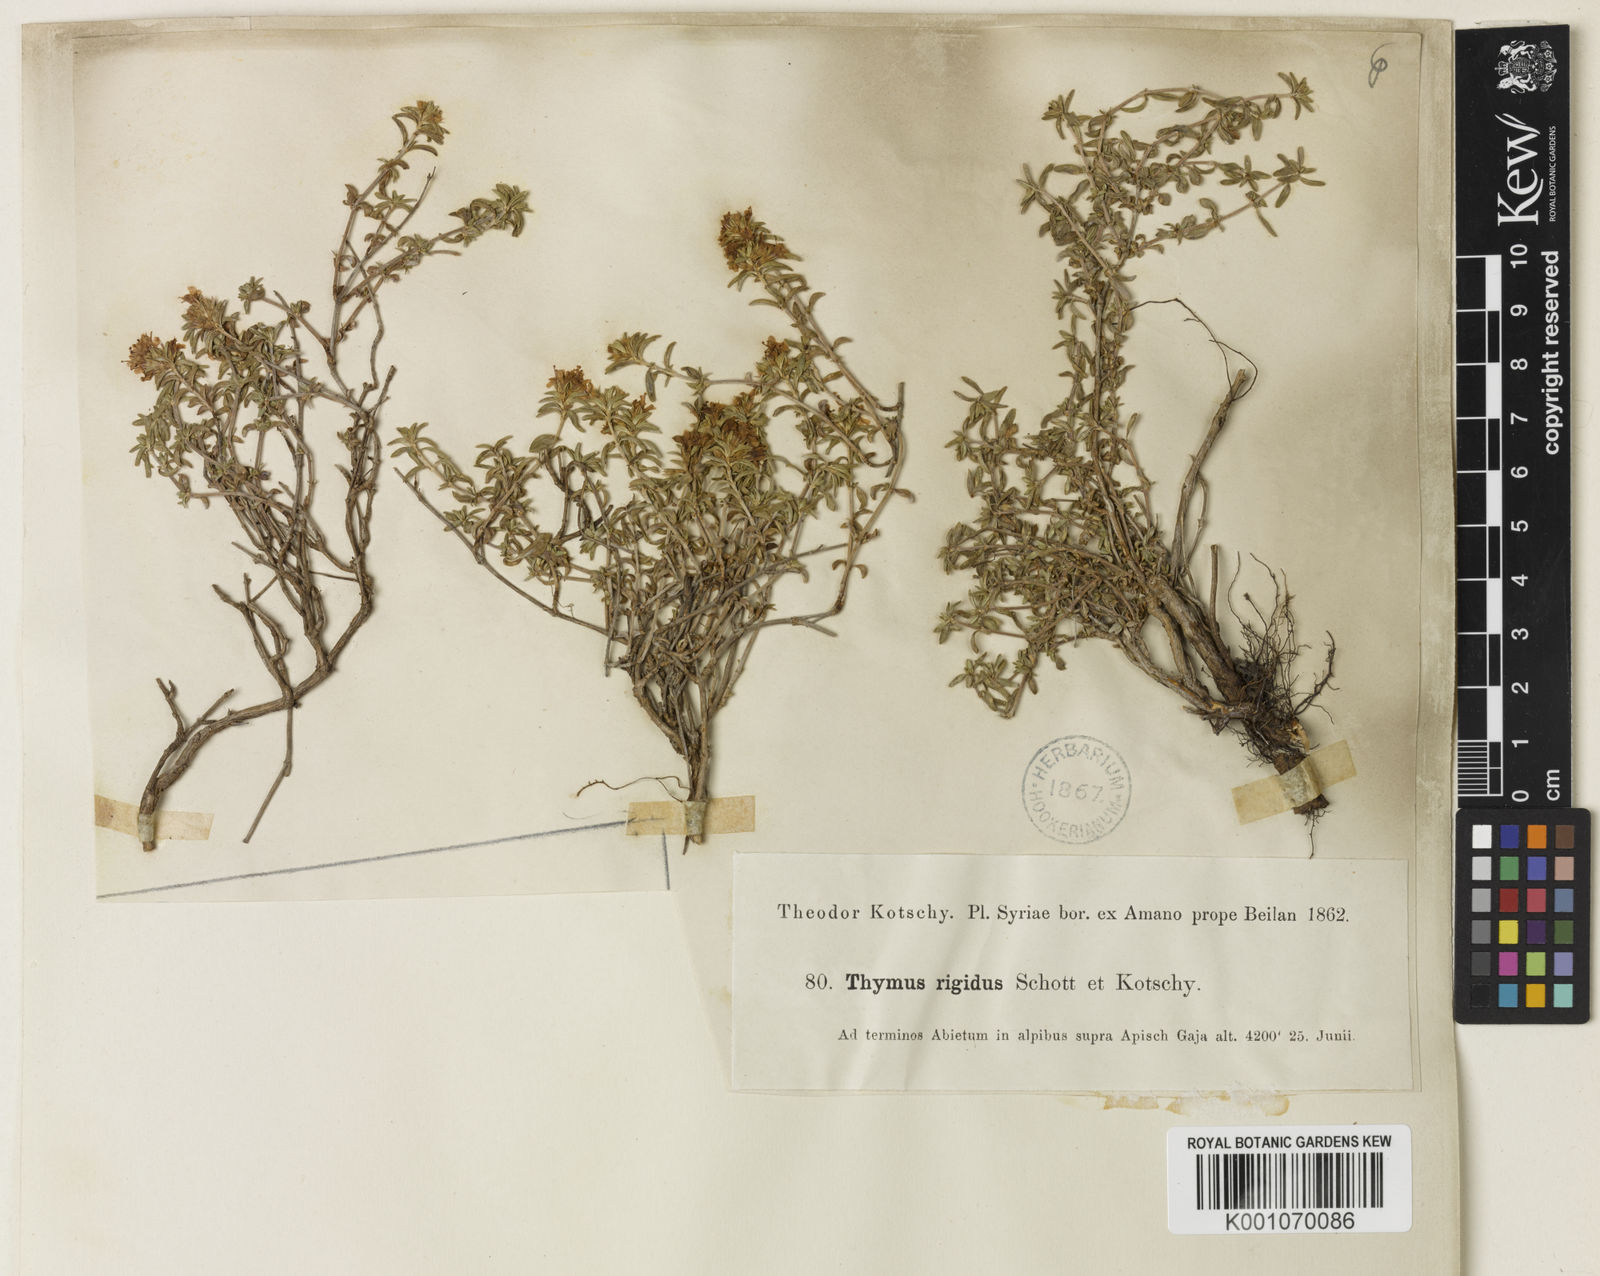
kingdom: Plantae
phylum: Tracheophyta
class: Magnoliopsida
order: Lamiales
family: Lamiaceae
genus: Thymus
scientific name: Thymus
